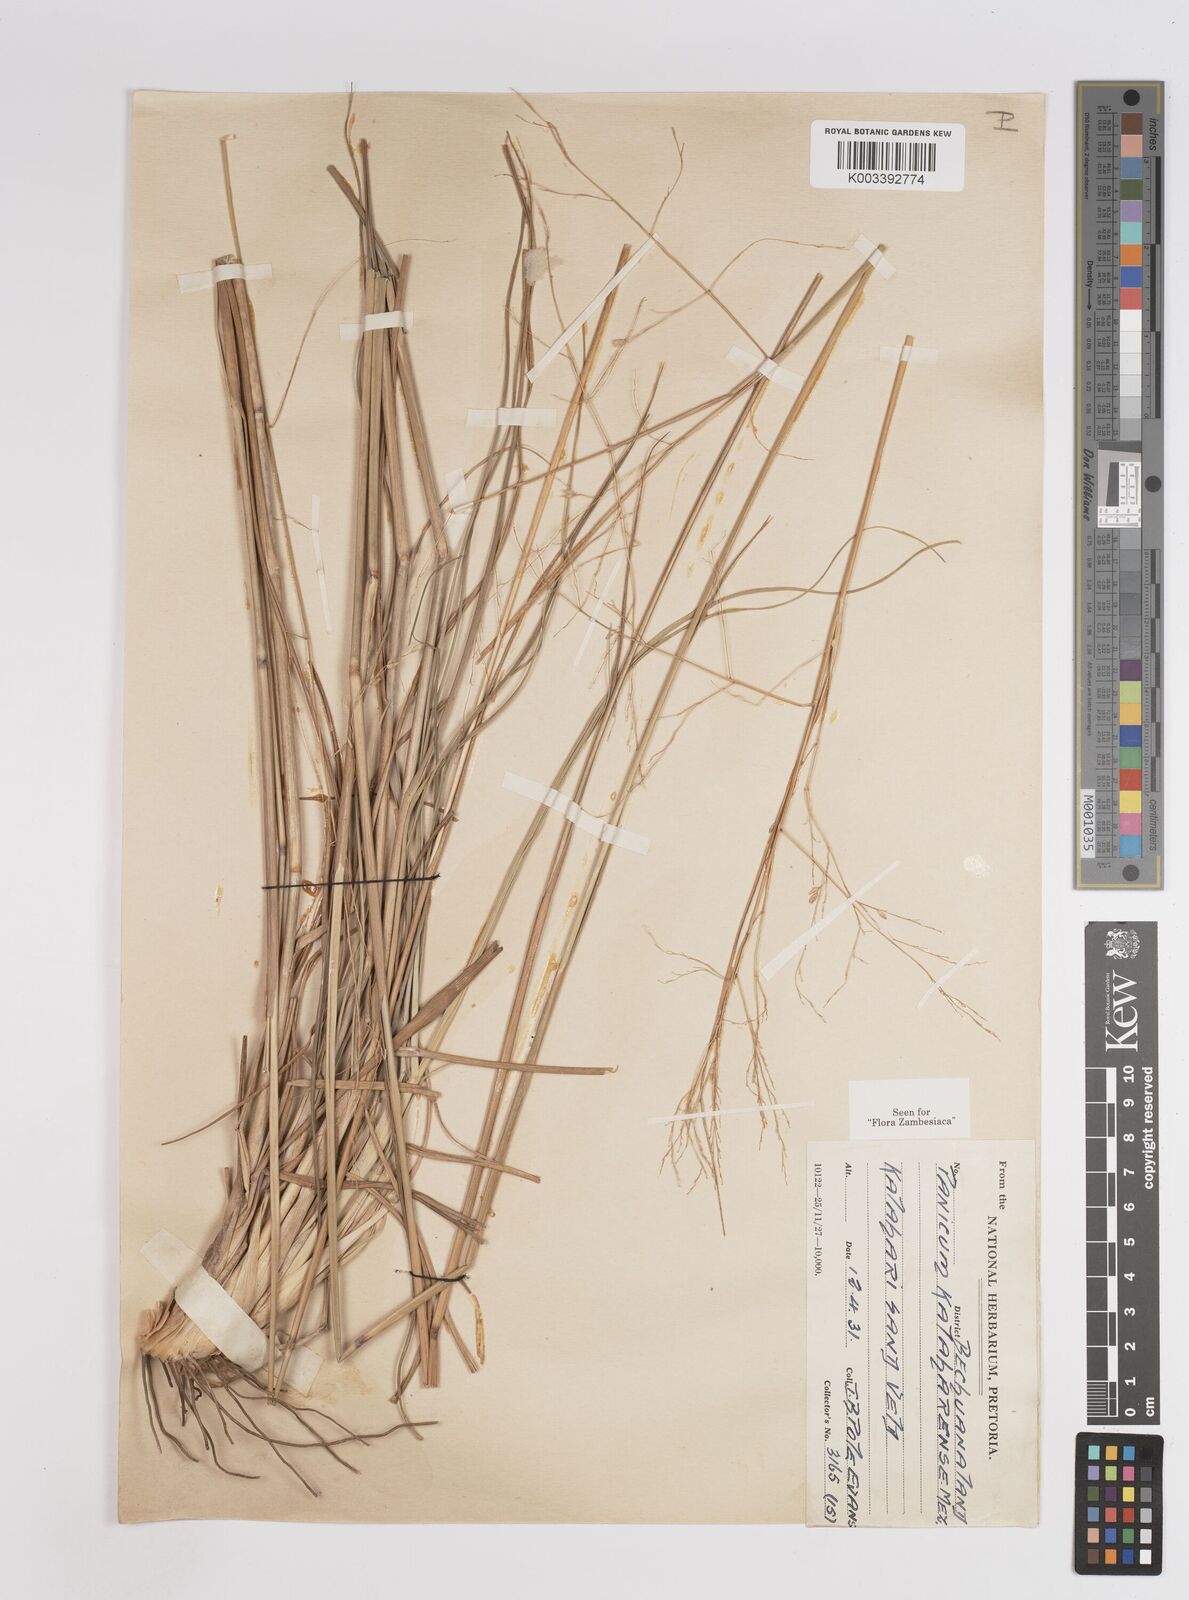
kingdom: Plantae
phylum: Tracheophyta
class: Liliopsida
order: Poales
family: Poaceae
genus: Panicum
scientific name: Panicum kalaharense
